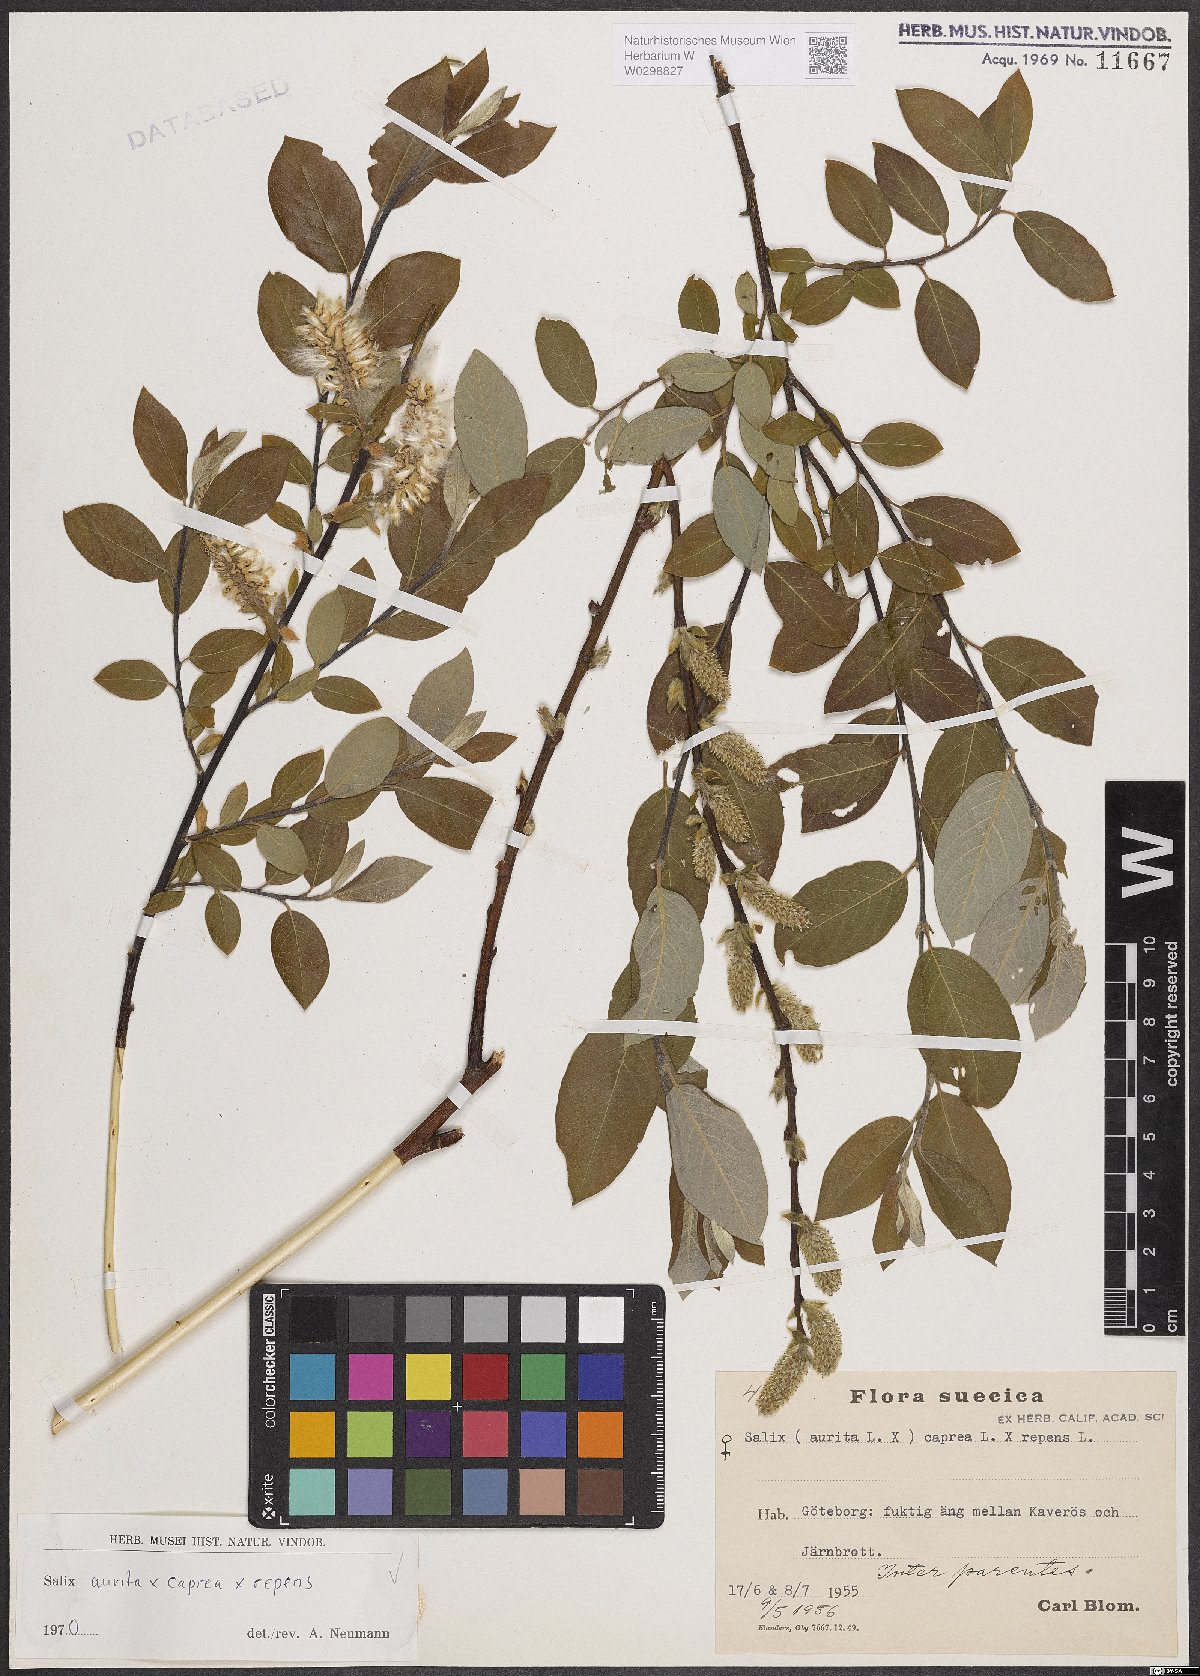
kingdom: Plantae
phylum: Tracheophyta
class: Magnoliopsida
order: Malpighiales
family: Salicaceae
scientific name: Salicaceae
